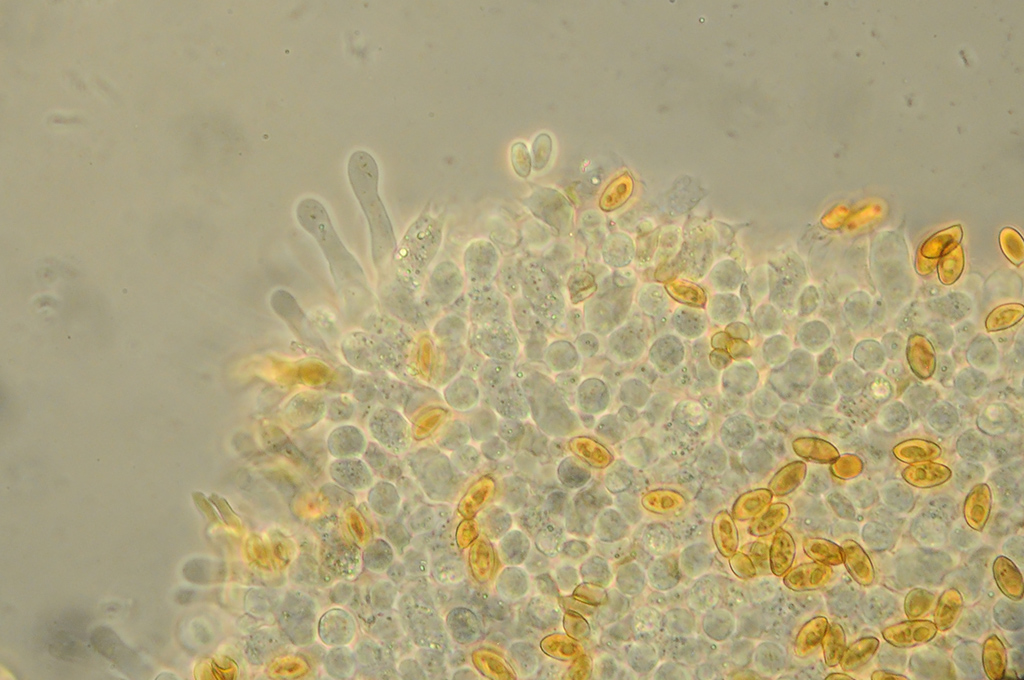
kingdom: Fungi
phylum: Basidiomycota
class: Agaricomycetes
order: Agaricales
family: Hymenogastraceae
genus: Galerina
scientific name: Galerina pumila
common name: honninggul hjelmhat
